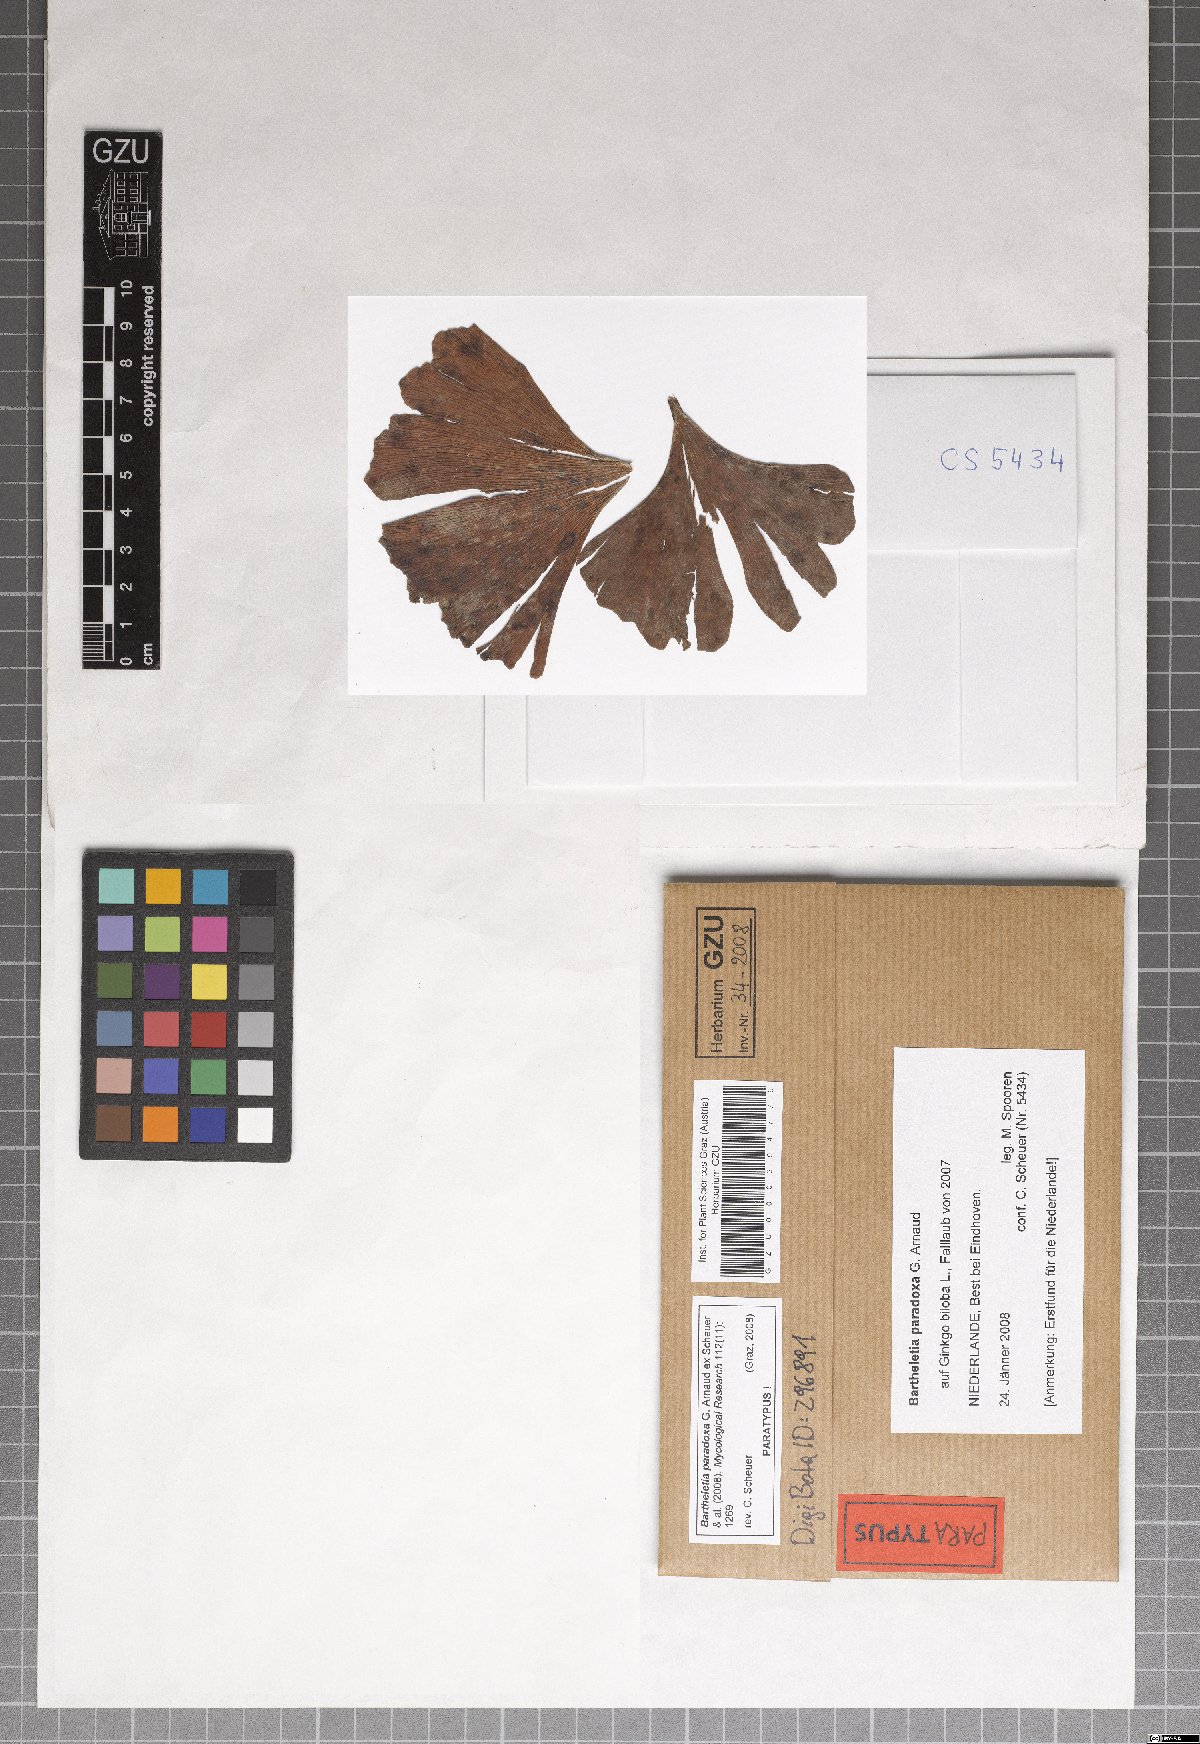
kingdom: Fungi
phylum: Basidiomycota
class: Wallemiomycetes
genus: Bartheletia
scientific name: Bartheletia paradoxa
